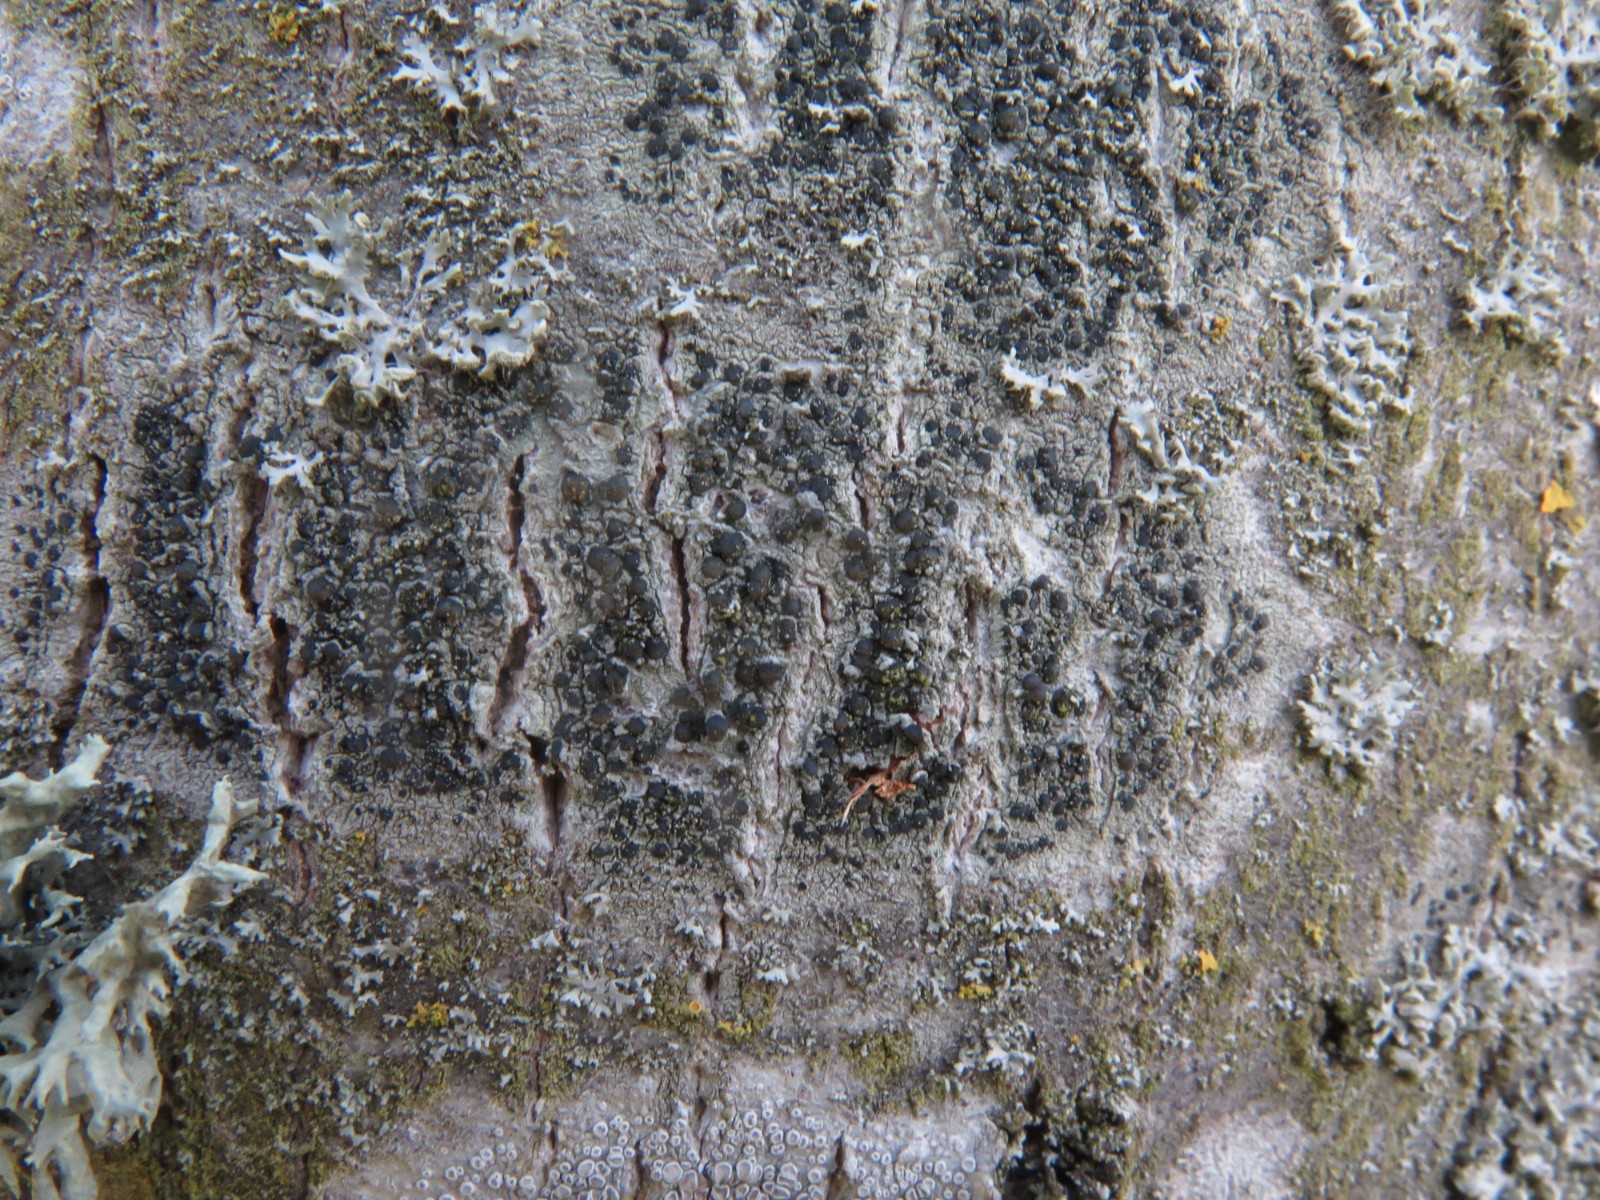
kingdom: Fungi
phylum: Ascomycota
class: Lecanoromycetes
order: Lecanorales
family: Lecanoraceae
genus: Lecidella
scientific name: Lecidella elaeochroma
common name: grågrøn skivelav
